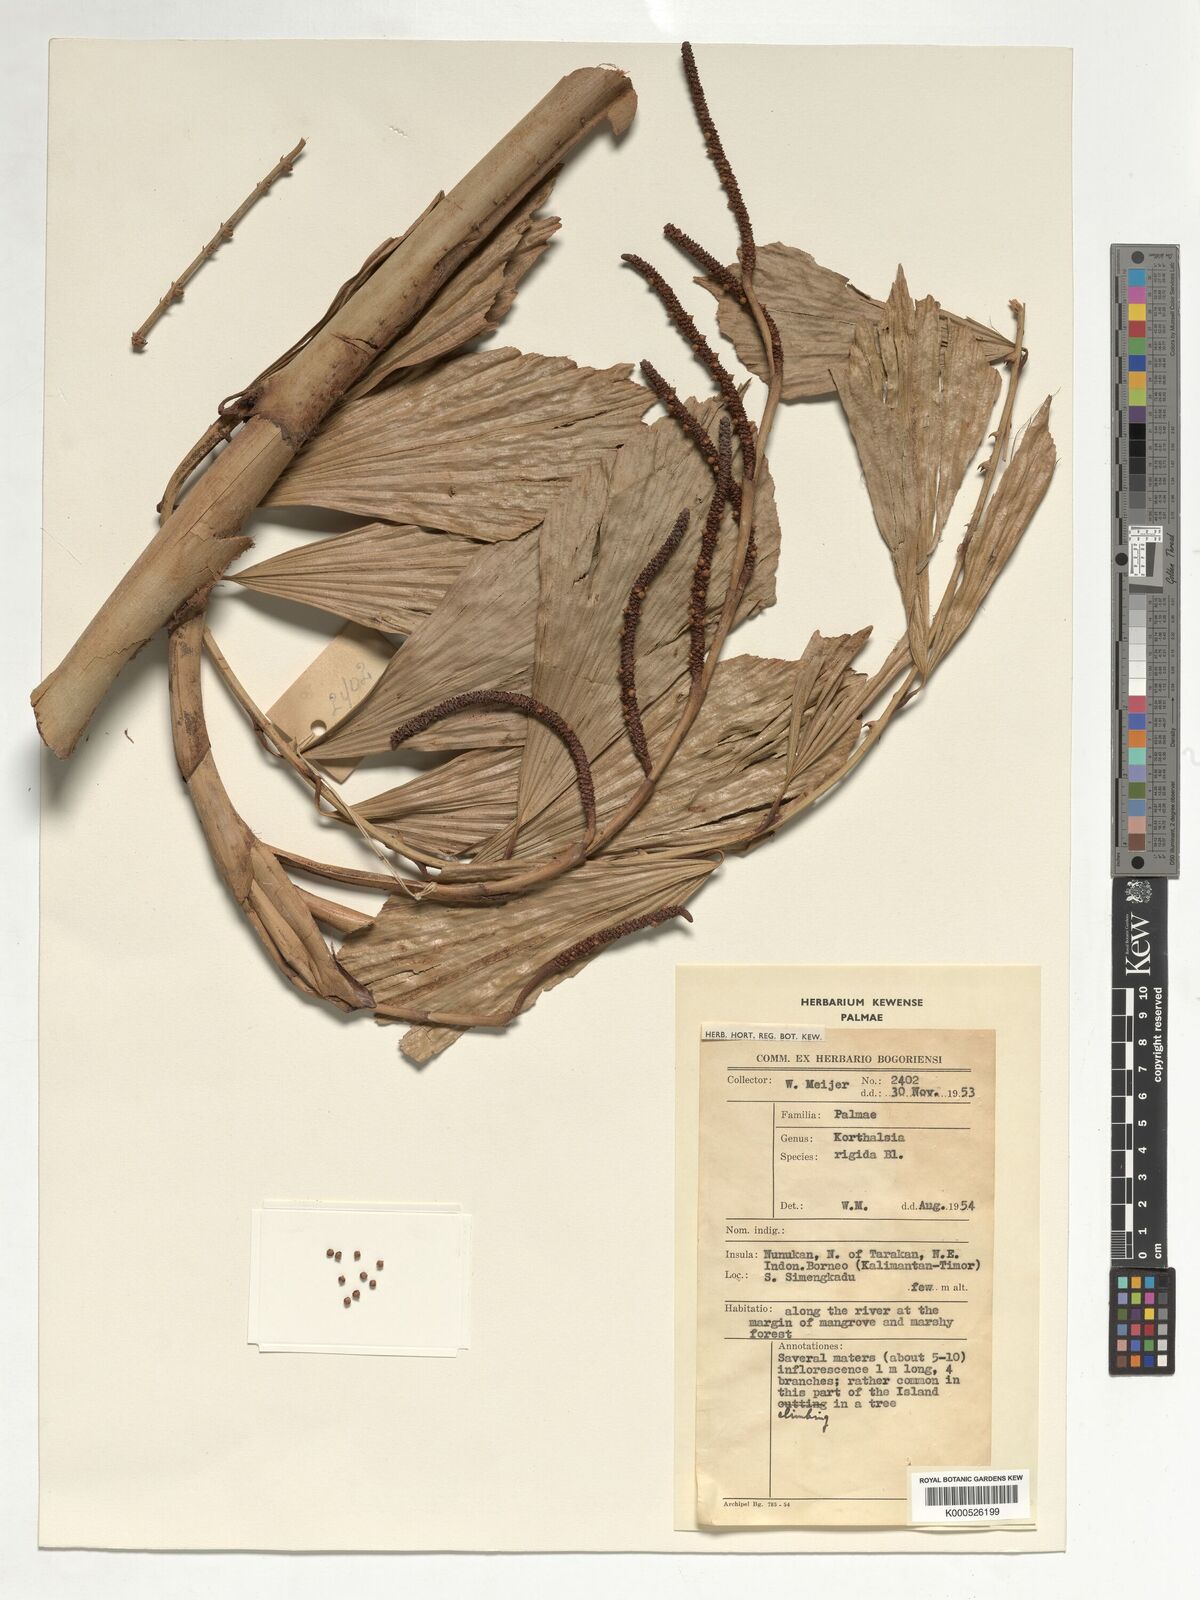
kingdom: Plantae
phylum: Tracheophyta
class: Liliopsida
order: Arecales
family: Arecaceae
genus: Korthalsia
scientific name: Korthalsia rigida
